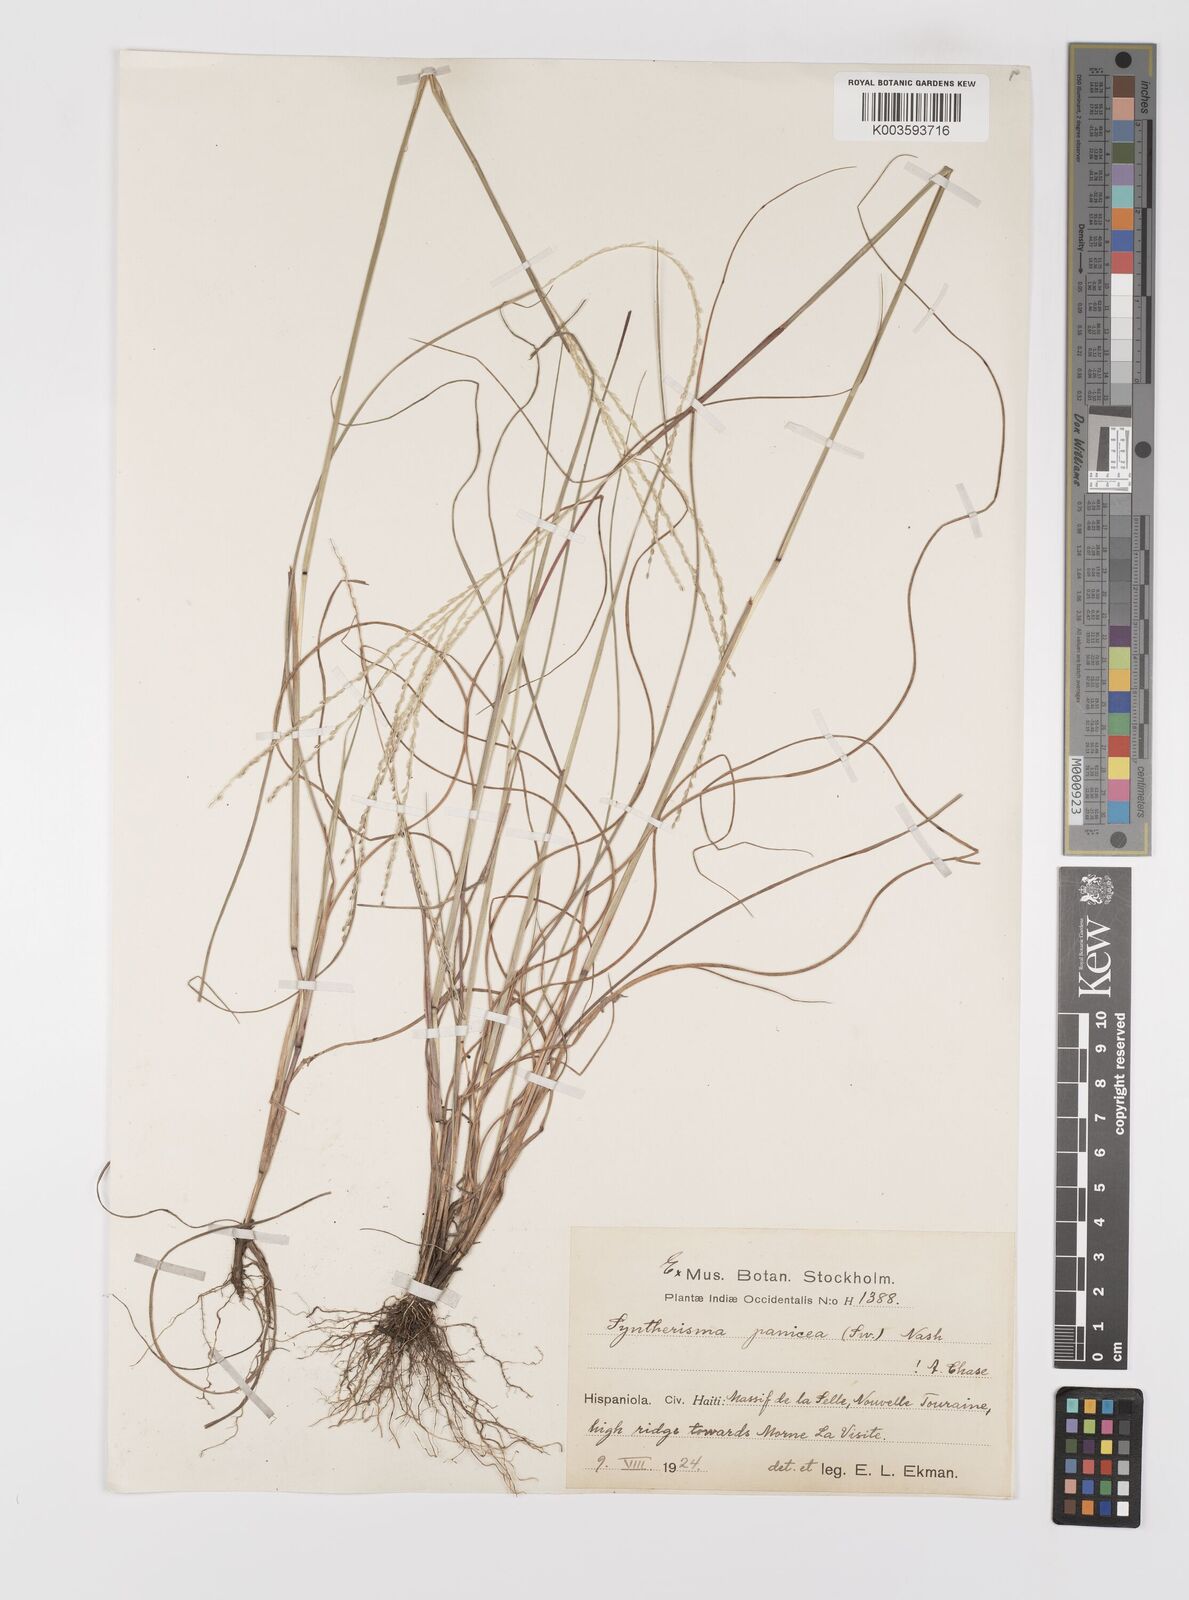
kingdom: Plantae
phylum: Tracheophyta
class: Liliopsida
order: Poales
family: Poaceae
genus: Digitaria
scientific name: Digitaria villosa
